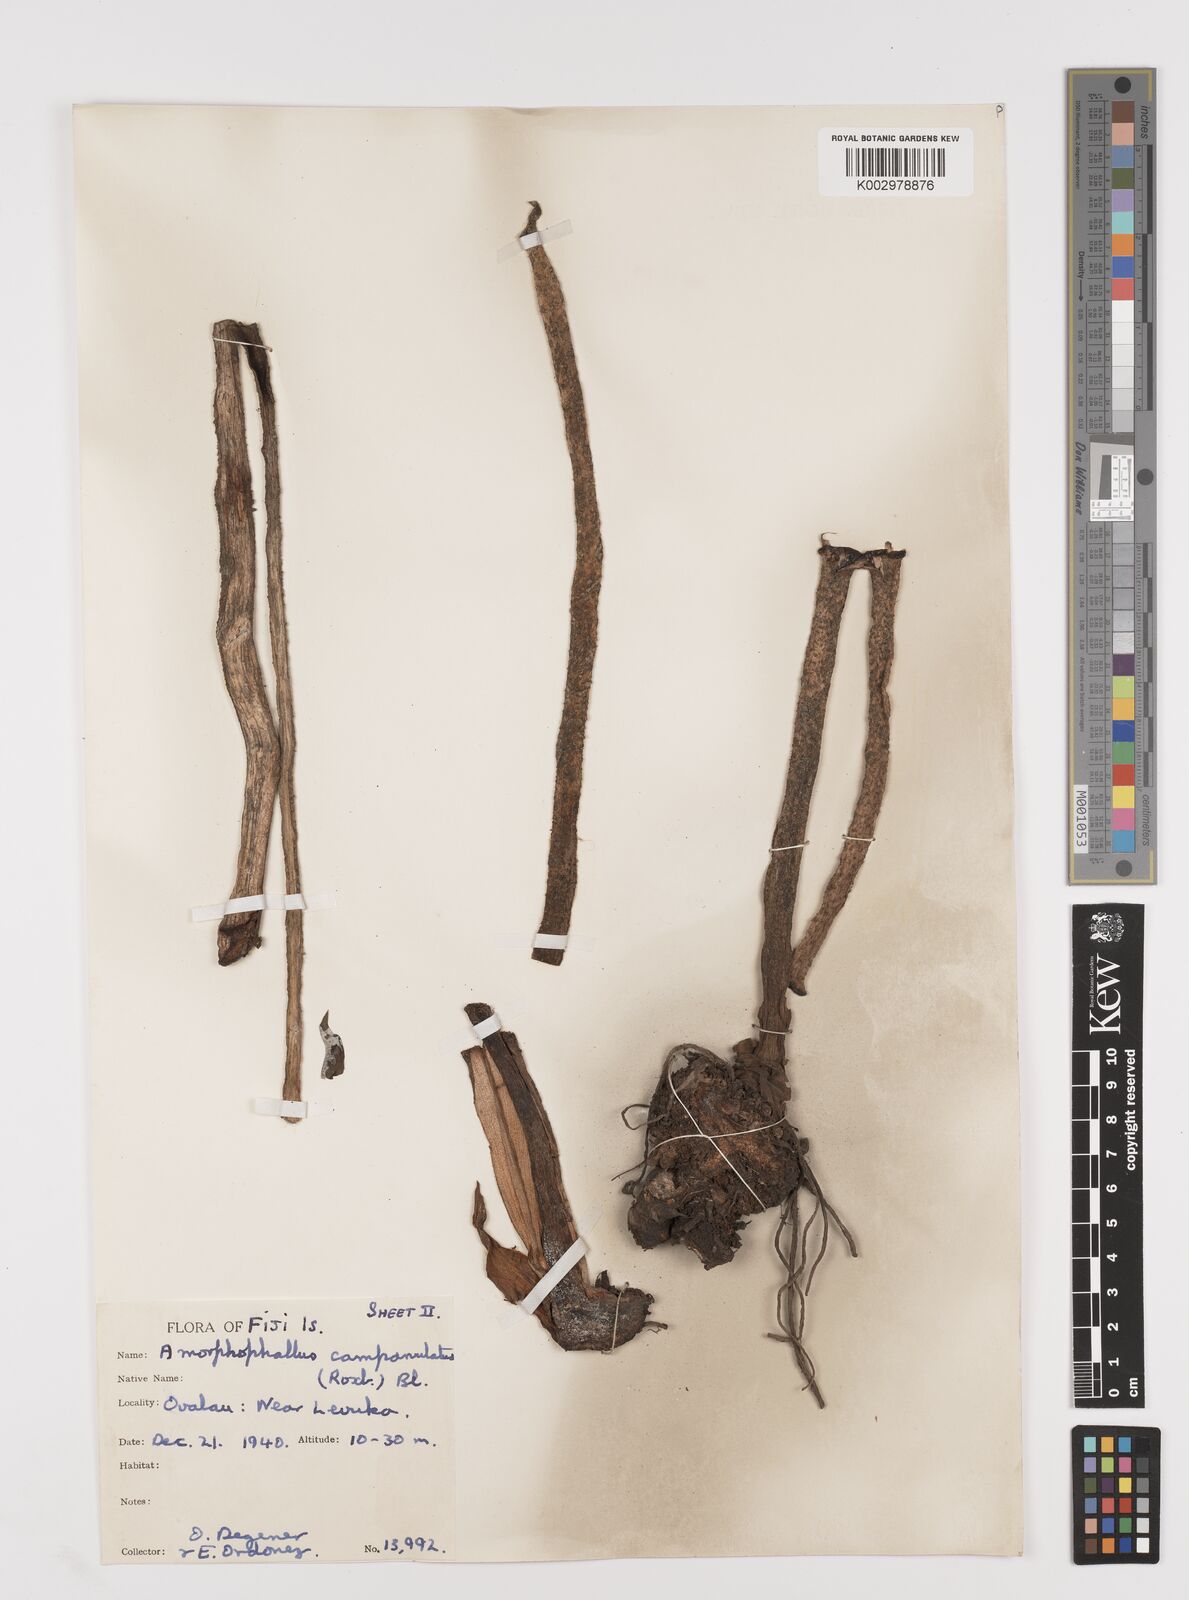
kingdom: Plantae
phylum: Tracheophyta
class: Liliopsida
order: Alismatales
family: Araceae
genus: Amorphophallus
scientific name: Amorphophallus paeoniifolius
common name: Telinga-potato
